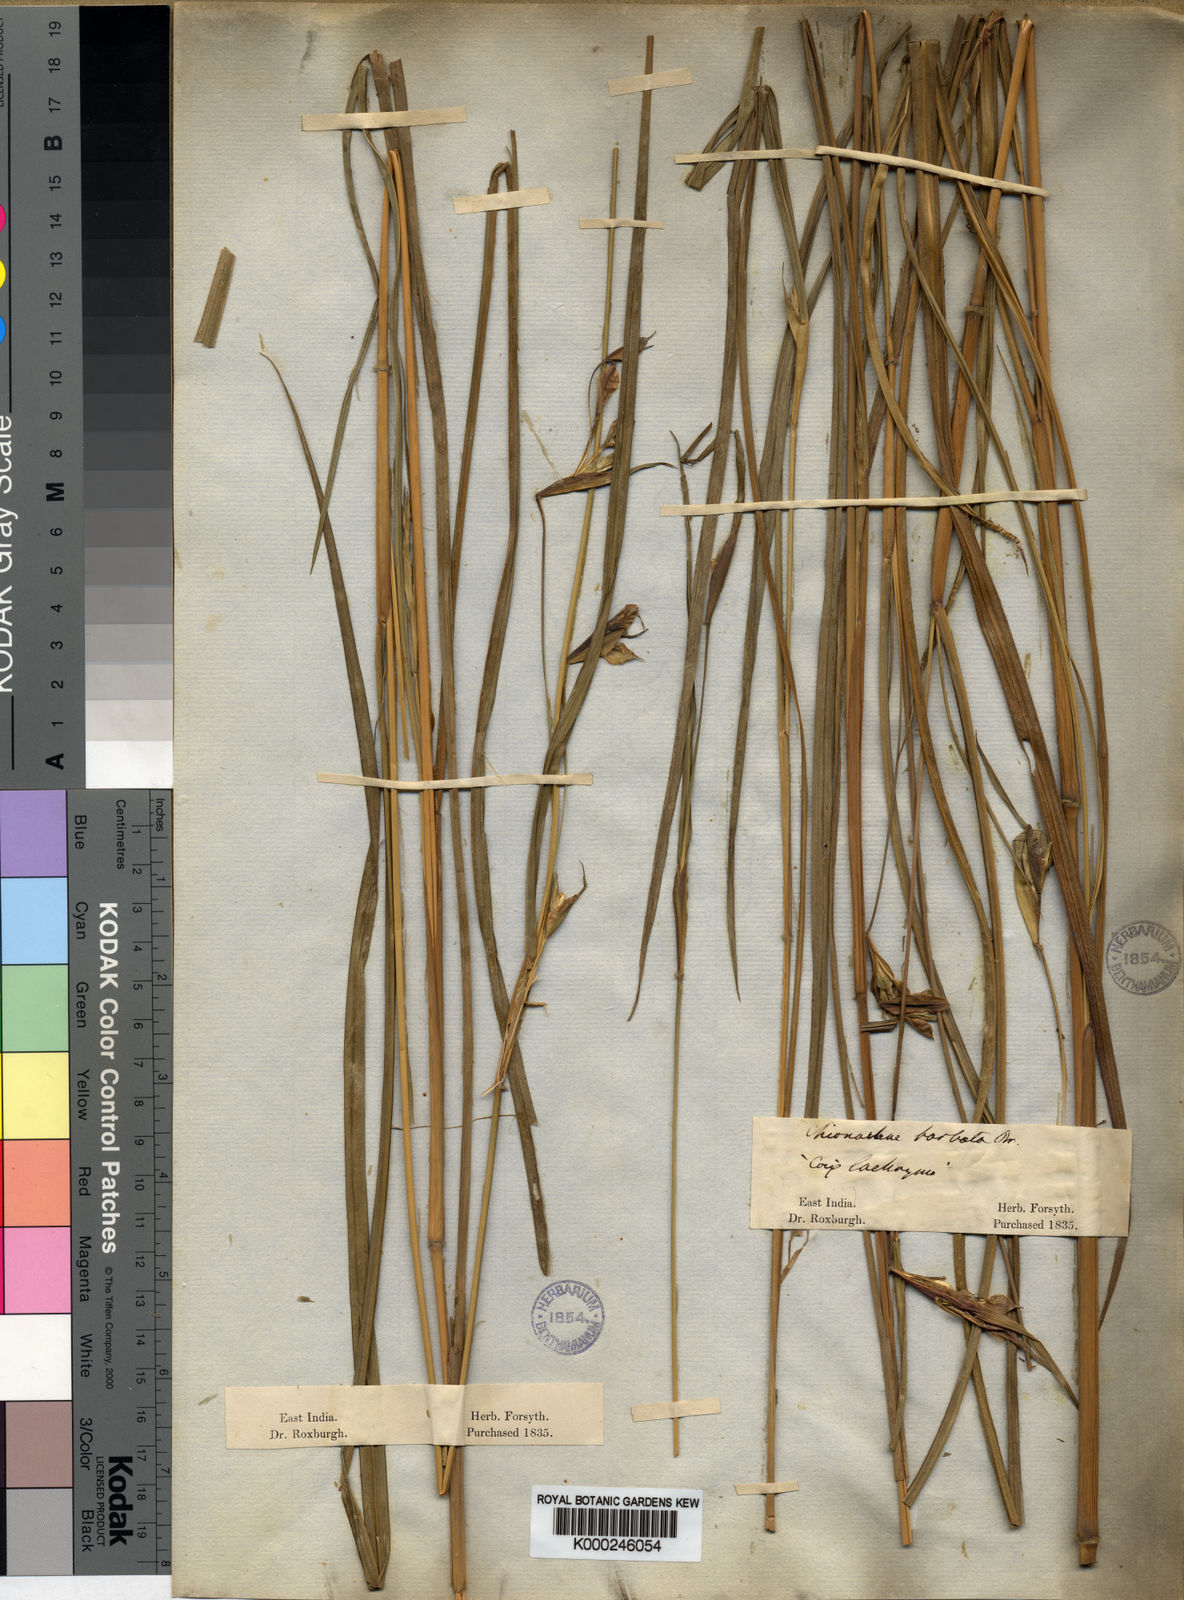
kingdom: Plantae
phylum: Tracheophyta
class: Liliopsida
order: Poales
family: Poaceae
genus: Polytoca
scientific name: Polytoca gigantea
